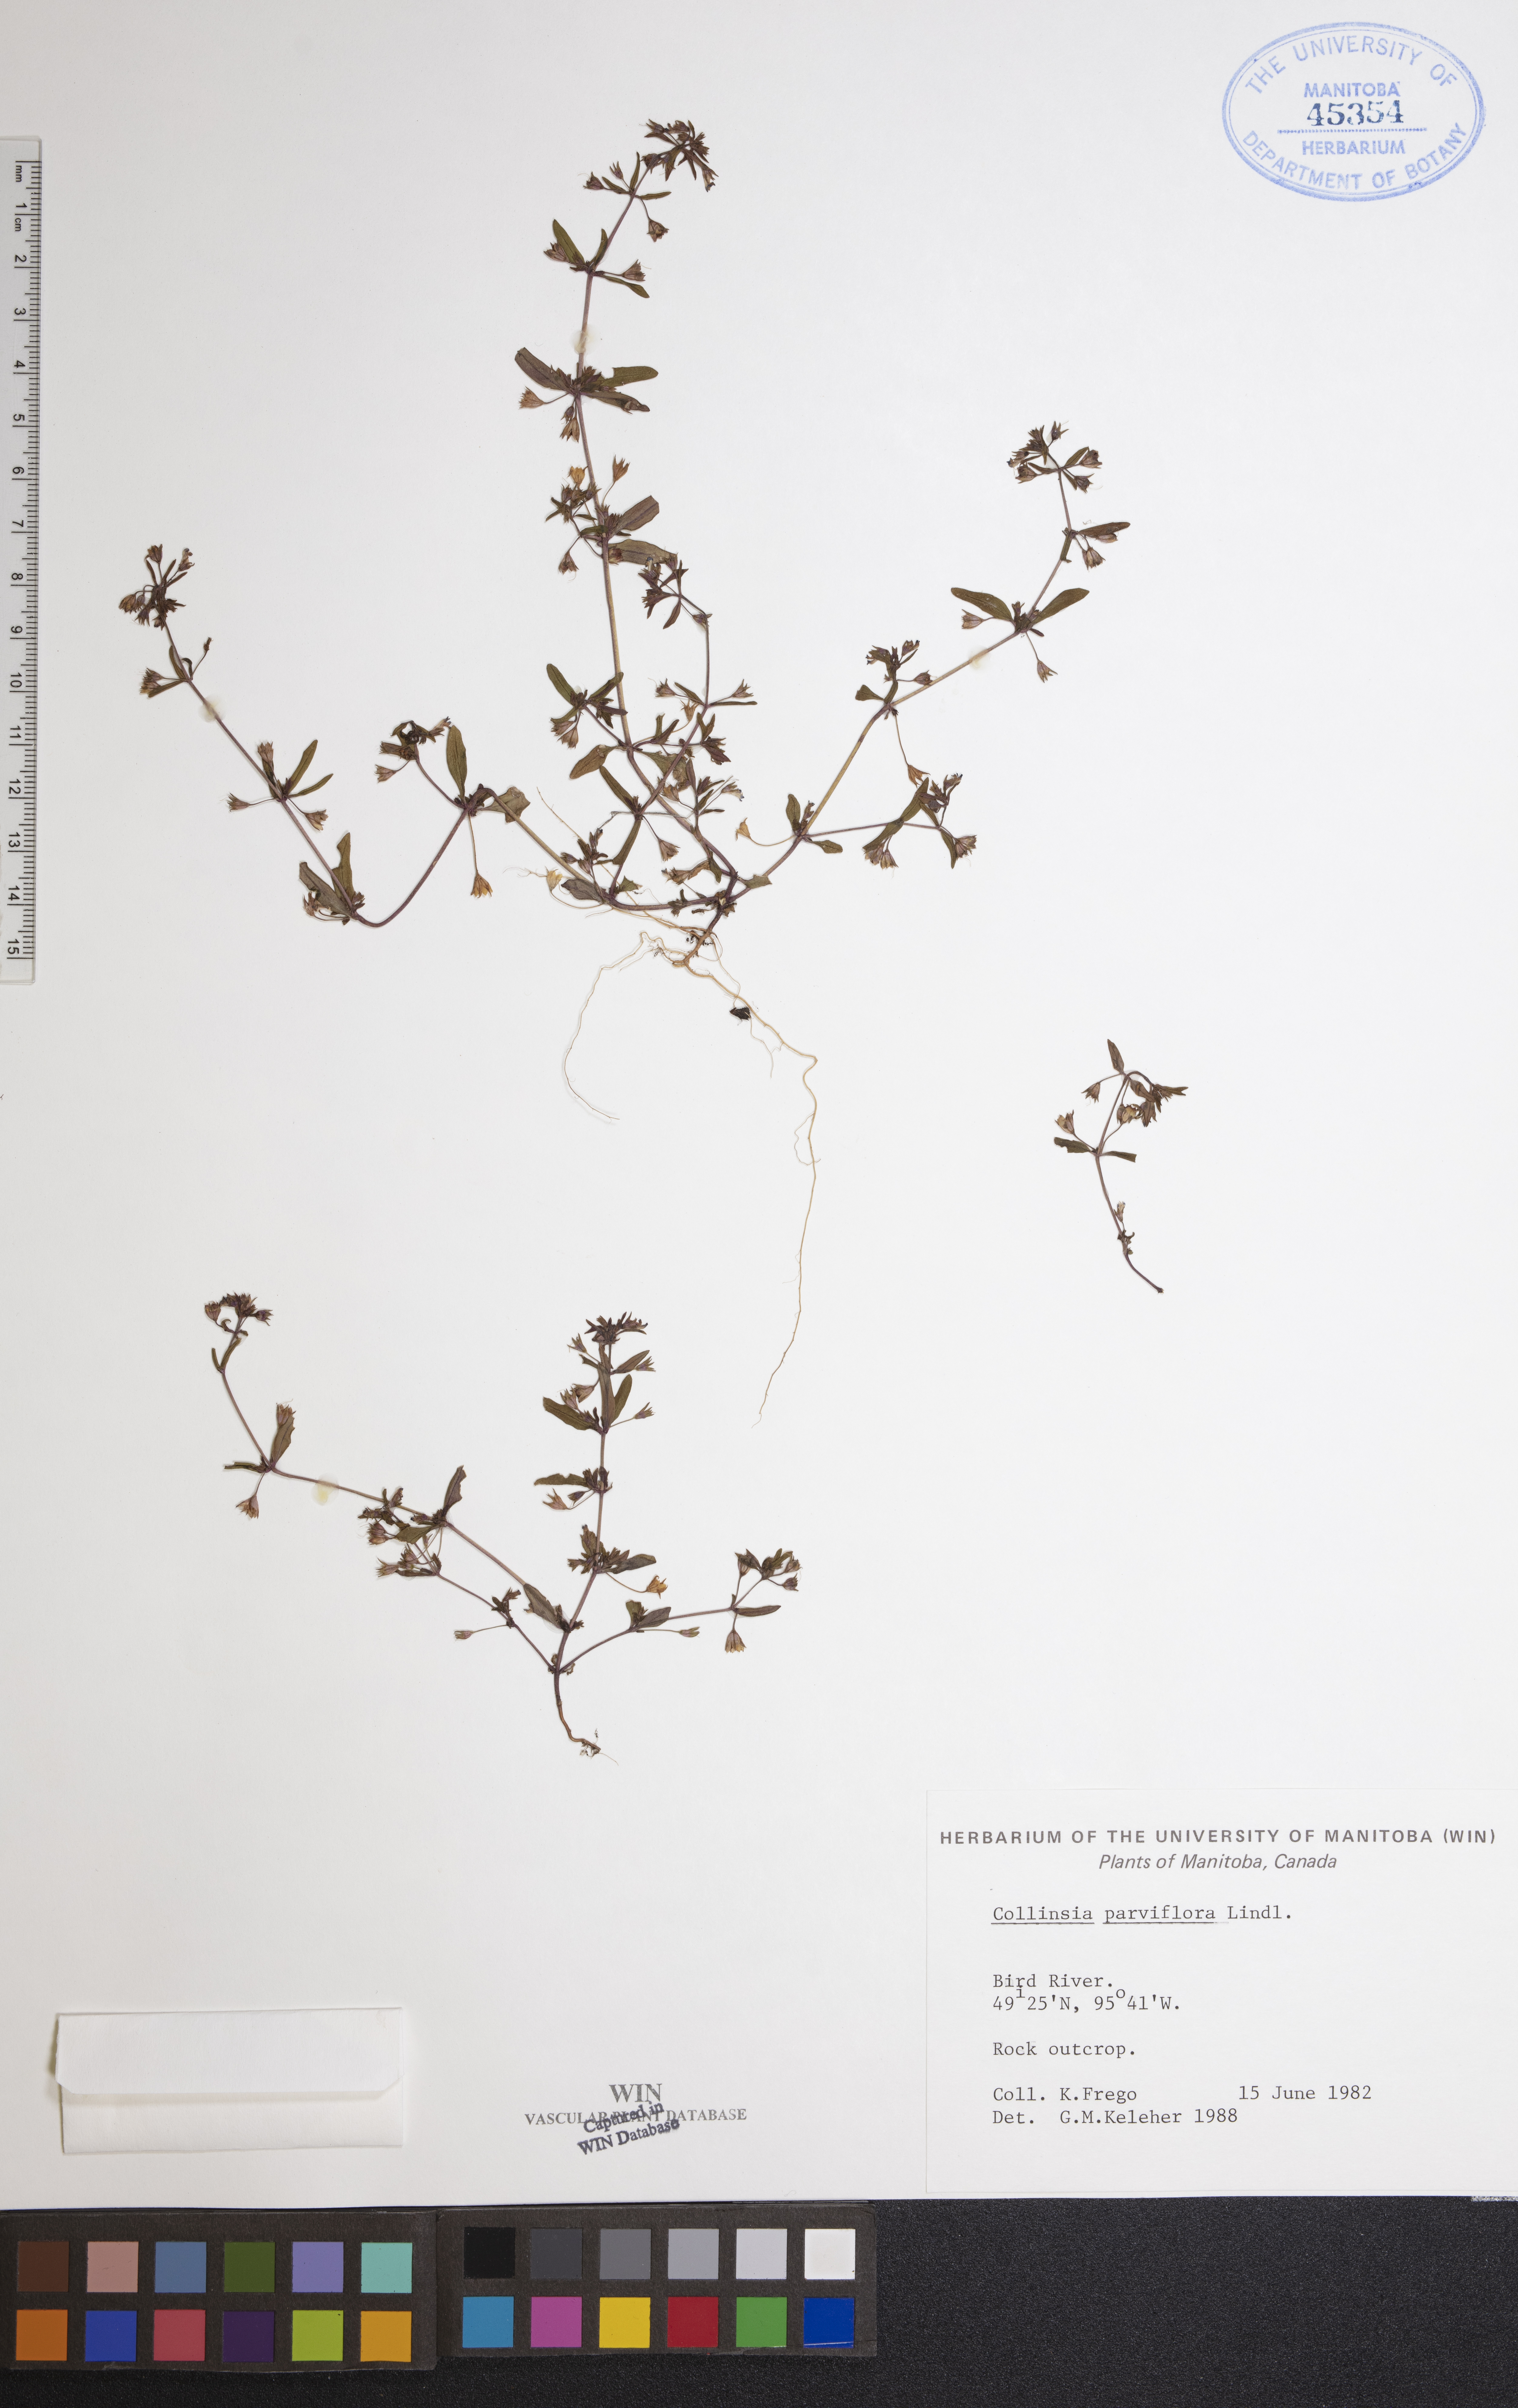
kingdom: Plantae
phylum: Tracheophyta
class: Magnoliopsida
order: Lamiales
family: Plantaginaceae
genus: Collinsia
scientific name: Collinsia parviflora
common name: Blue-lips
